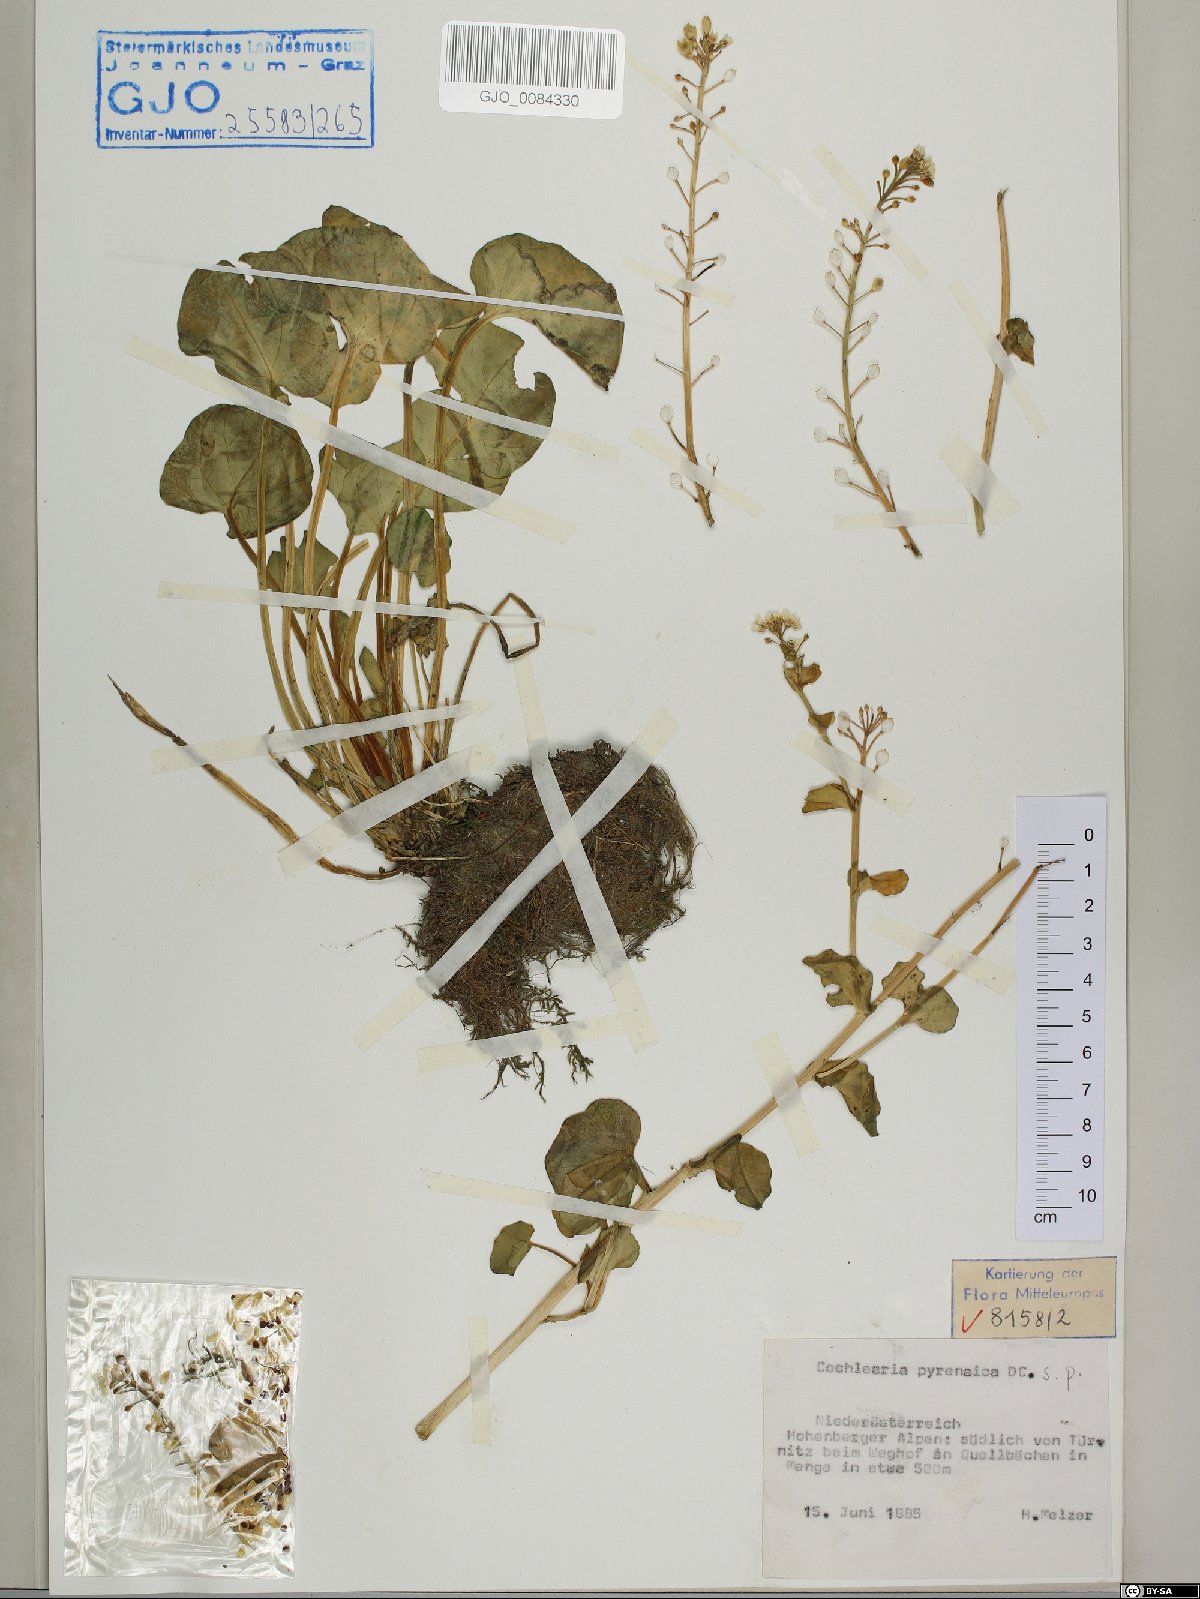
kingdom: Plantae
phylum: Tracheophyta
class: Magnoliopsida
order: Brassicales
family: Brassicaceae
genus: Cochlearia
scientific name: Cochlearia pyrenaica
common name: Upland scurvy-grass
